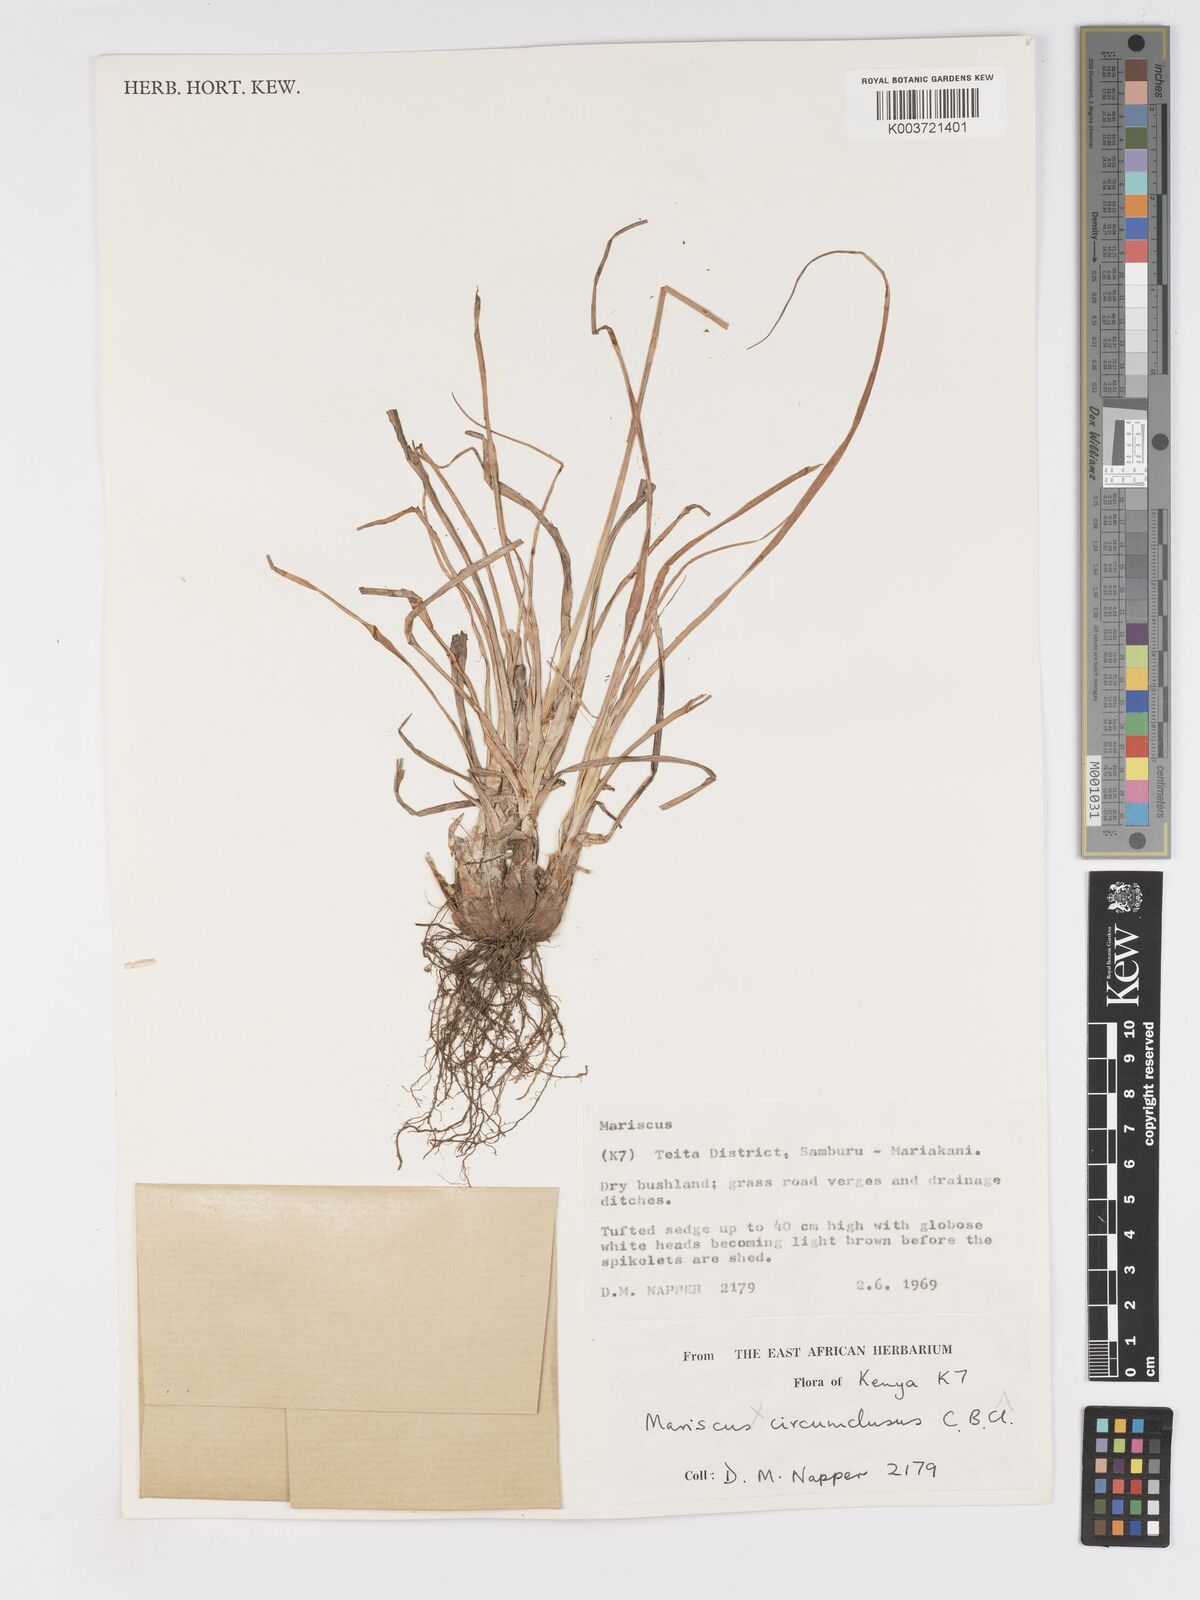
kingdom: Plantae
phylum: Tracheophyta
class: Liliopsida
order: Poales
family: Cyperaceae
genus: Cyperus
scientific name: Cyperus mollipes
